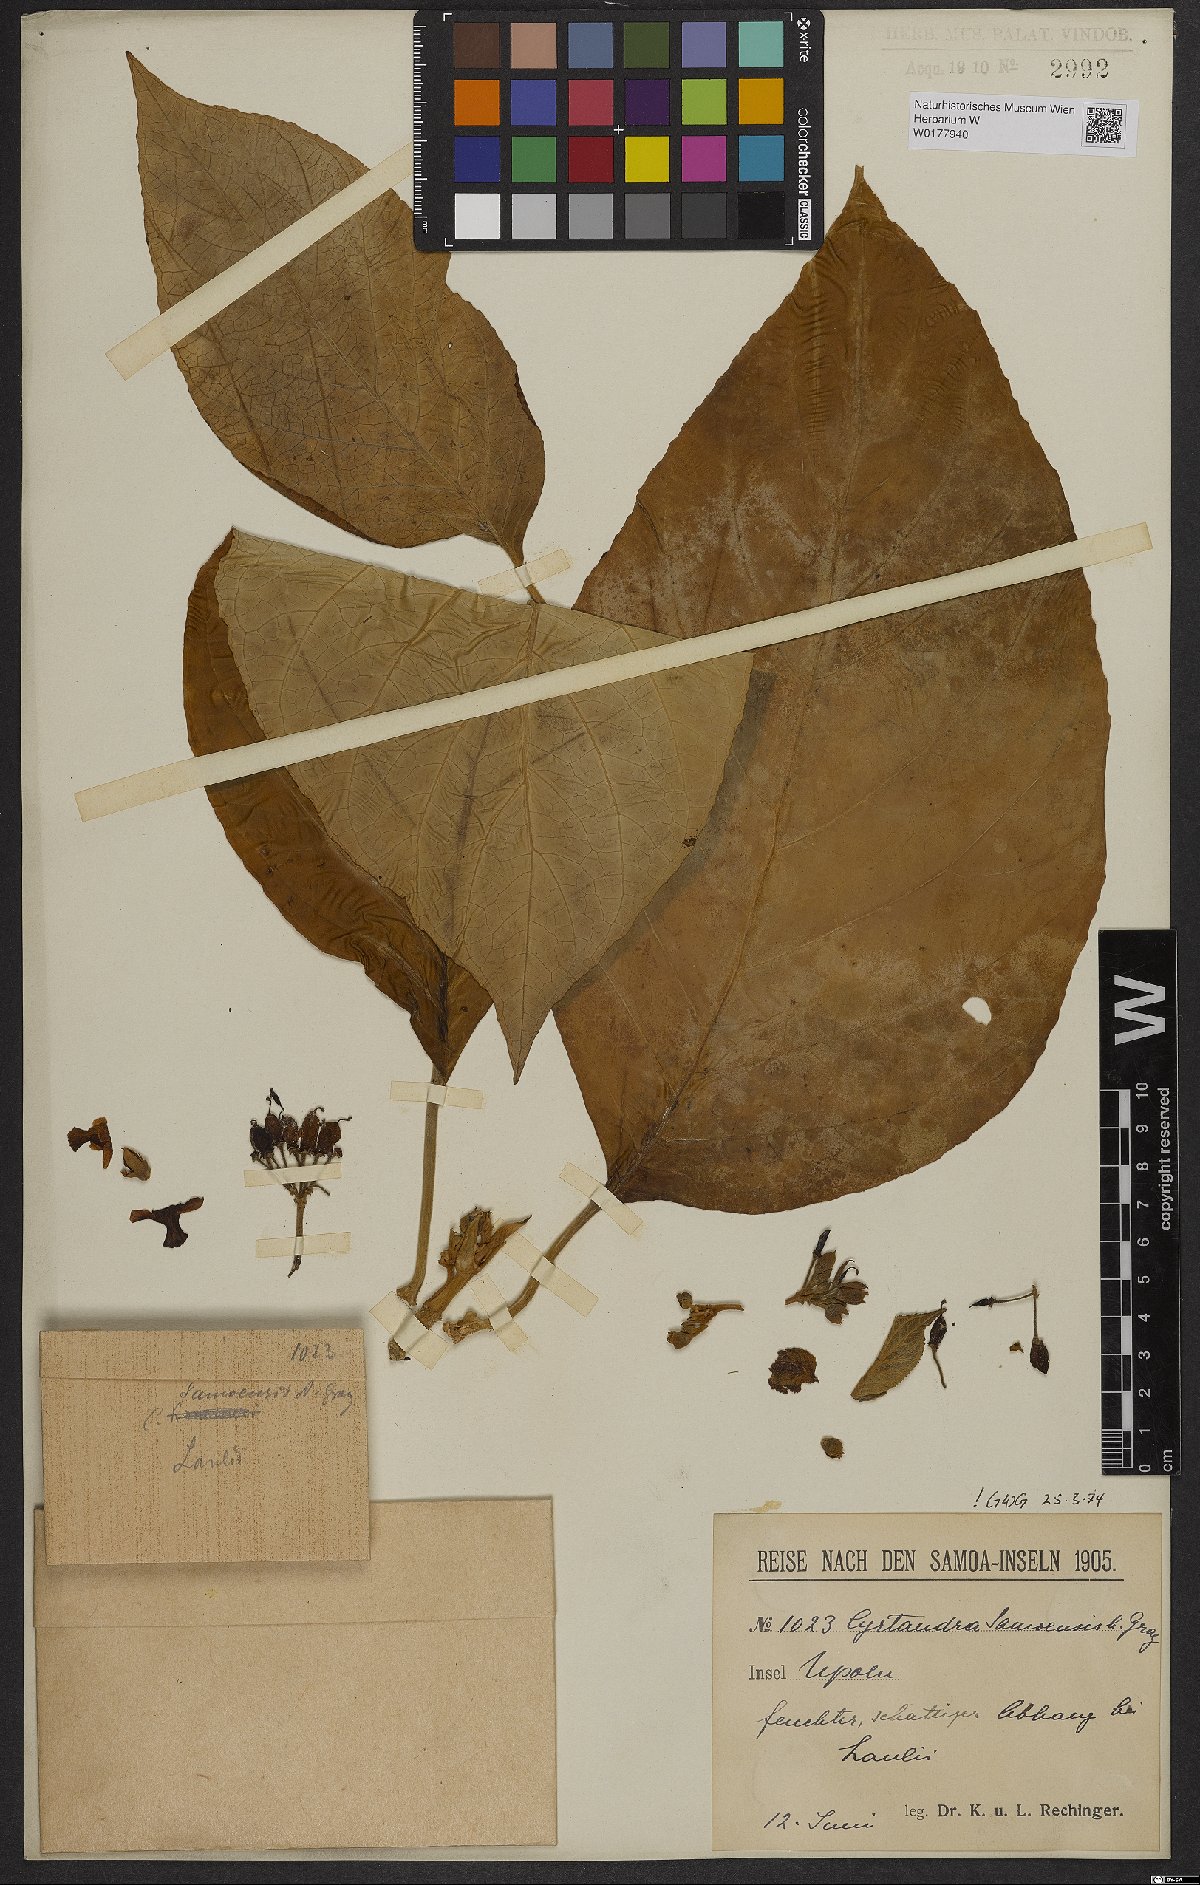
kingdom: Plantae
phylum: Tracheophyta
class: Magnoliopsida
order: Lamiales
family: Gesneriaceae
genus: Cyrtandra
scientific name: Cyrtandra samoensis
